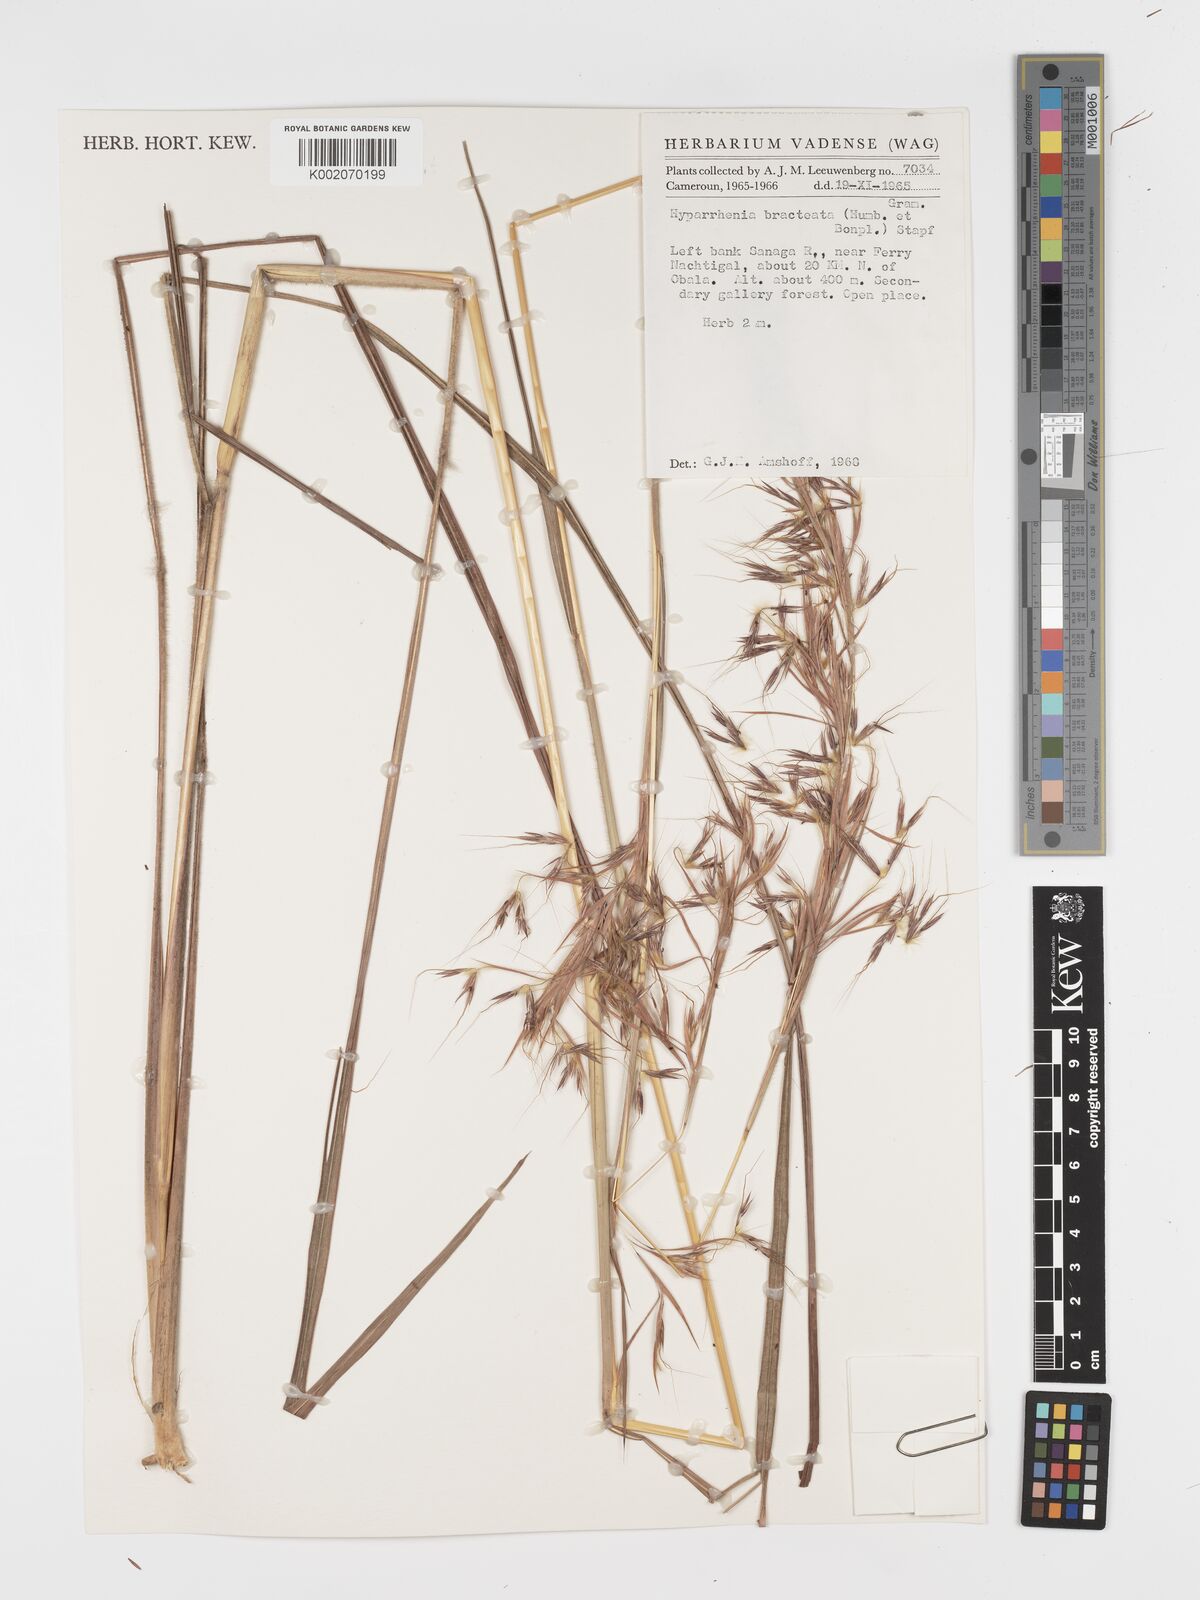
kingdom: Plantae
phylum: Tracheophyta
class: Liliopsida
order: Poales
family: Poaceae
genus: Hyparrhenia
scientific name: Hyparrhenia bracteata
